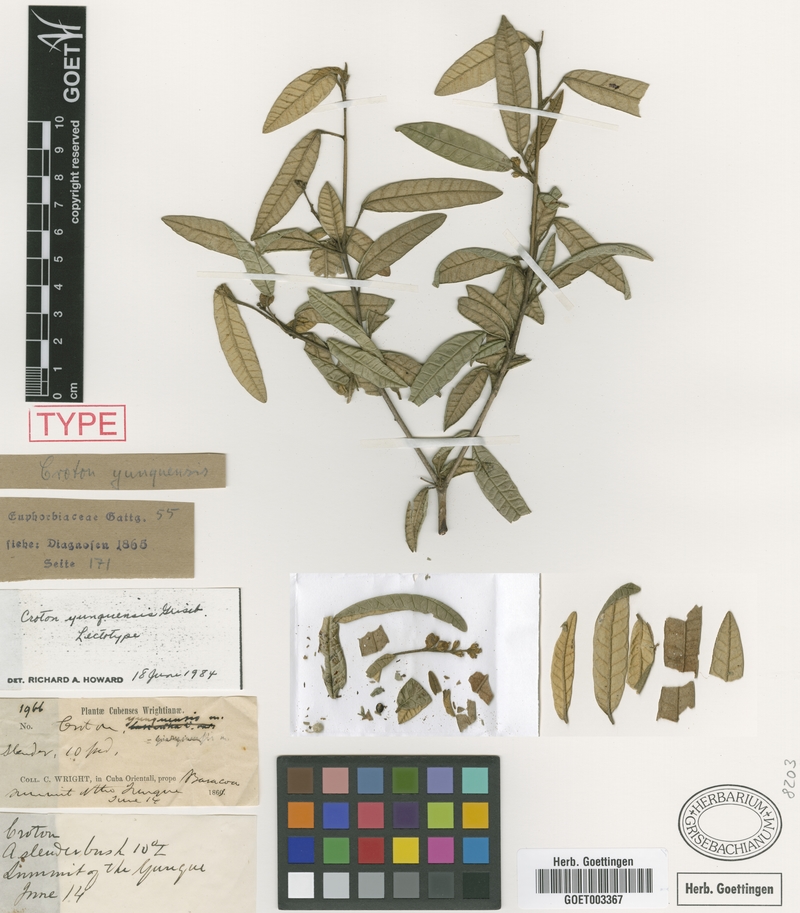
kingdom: Plantae
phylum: Tracheophyta
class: Magnoliopsida
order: Malpighiales
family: Euphorbiaceae
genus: Croton
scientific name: Croton viminalis
